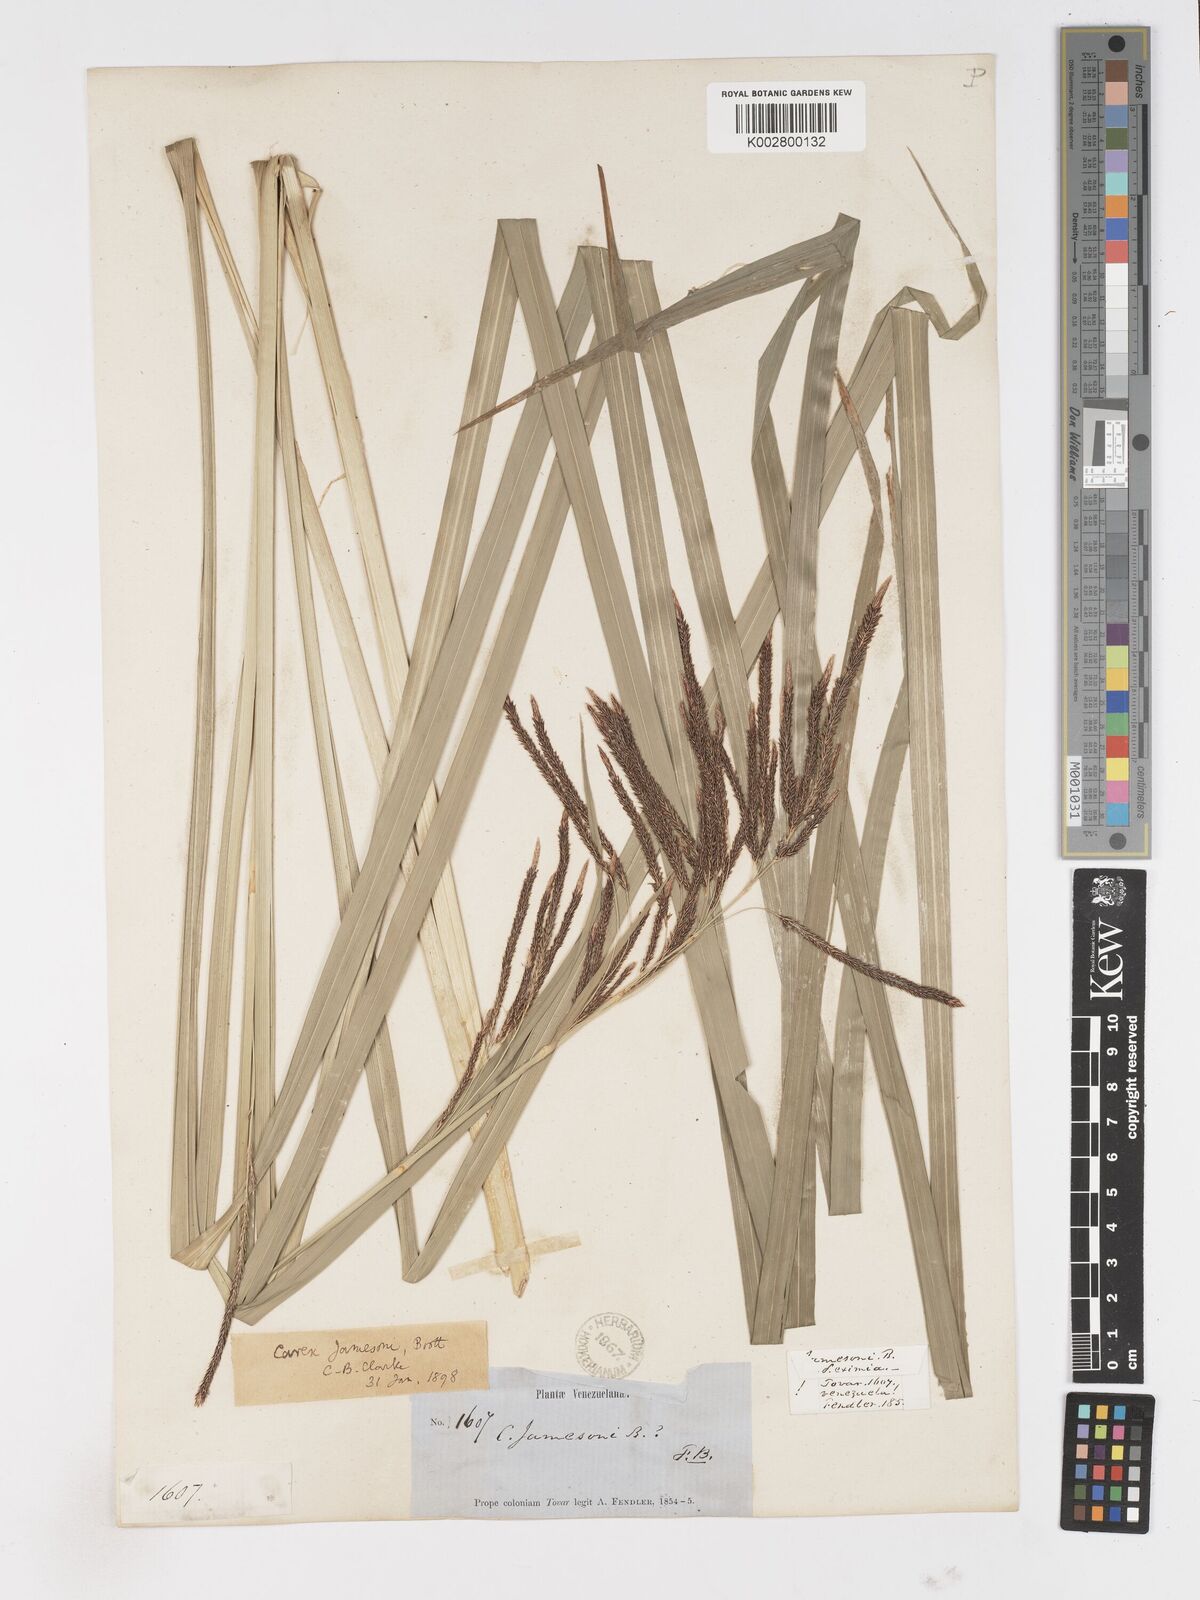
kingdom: Plantae
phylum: Tracheophyta
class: Liliopsida
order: Poales
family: Cyperaceae
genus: Carex
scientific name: Carex jamesonii
